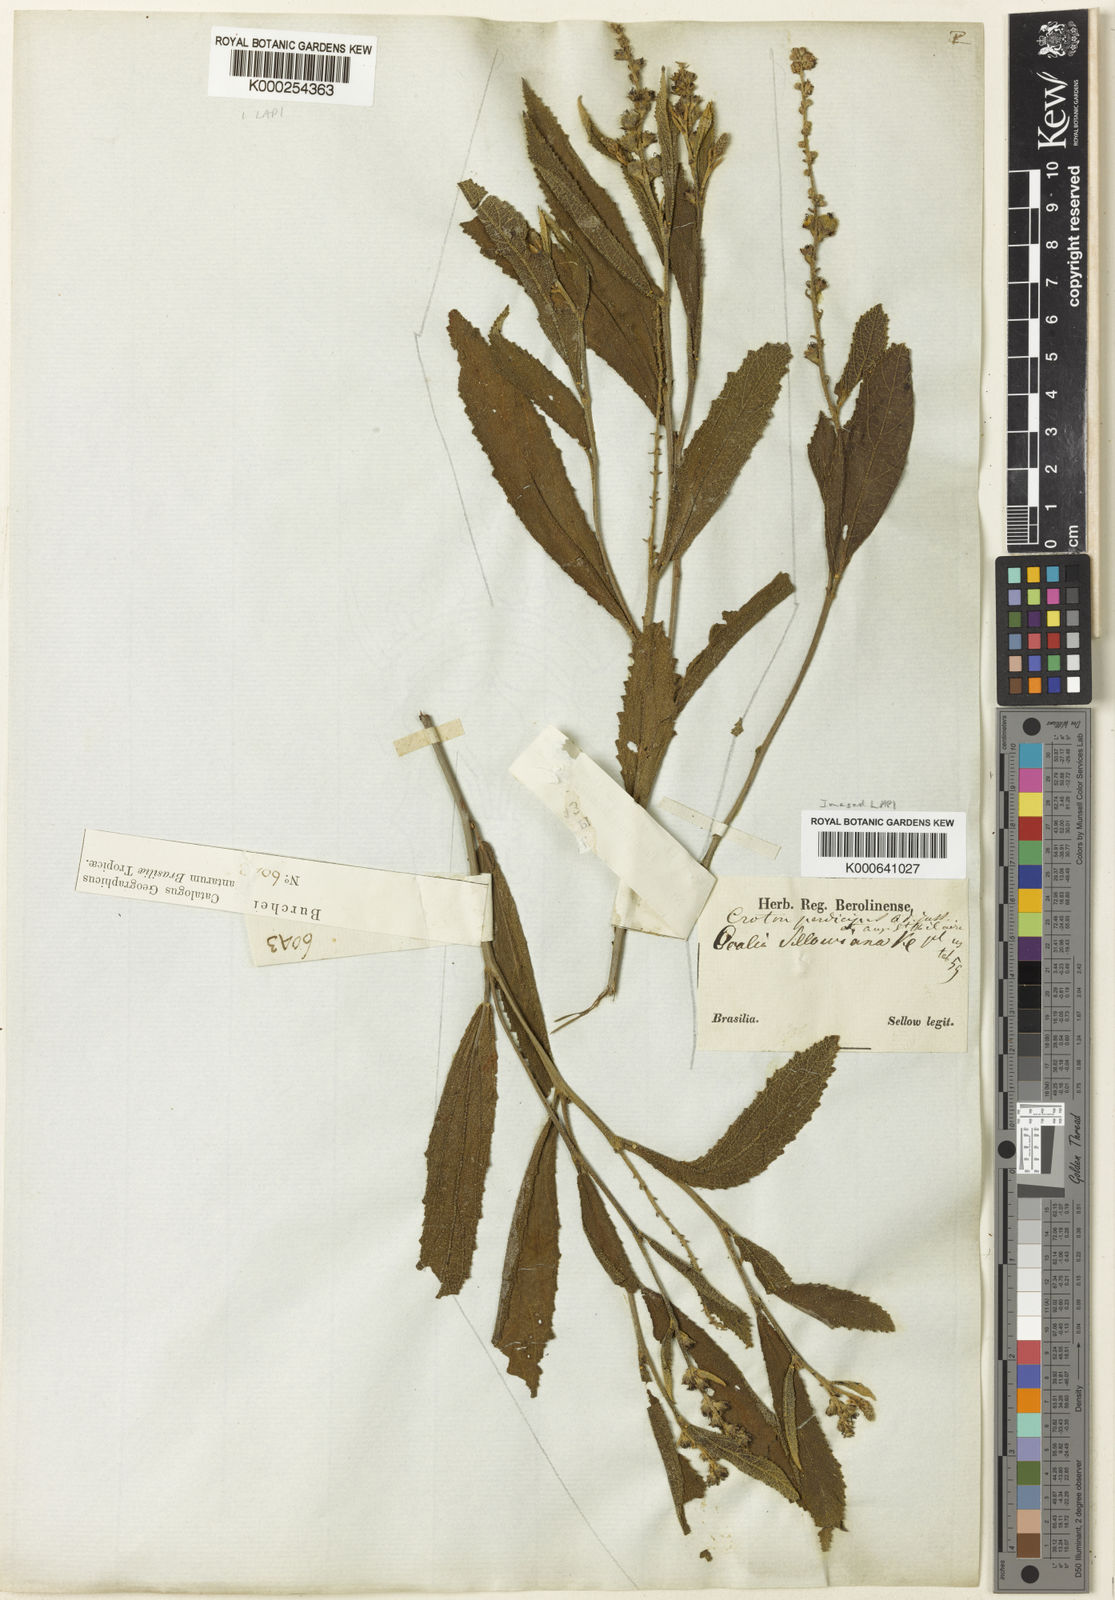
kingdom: Plantae
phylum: Tracheophyta
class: Magnoliopsida
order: Malpighiales
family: Euphorbiaceae
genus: Croton
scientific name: Croton antisyphiliticus
